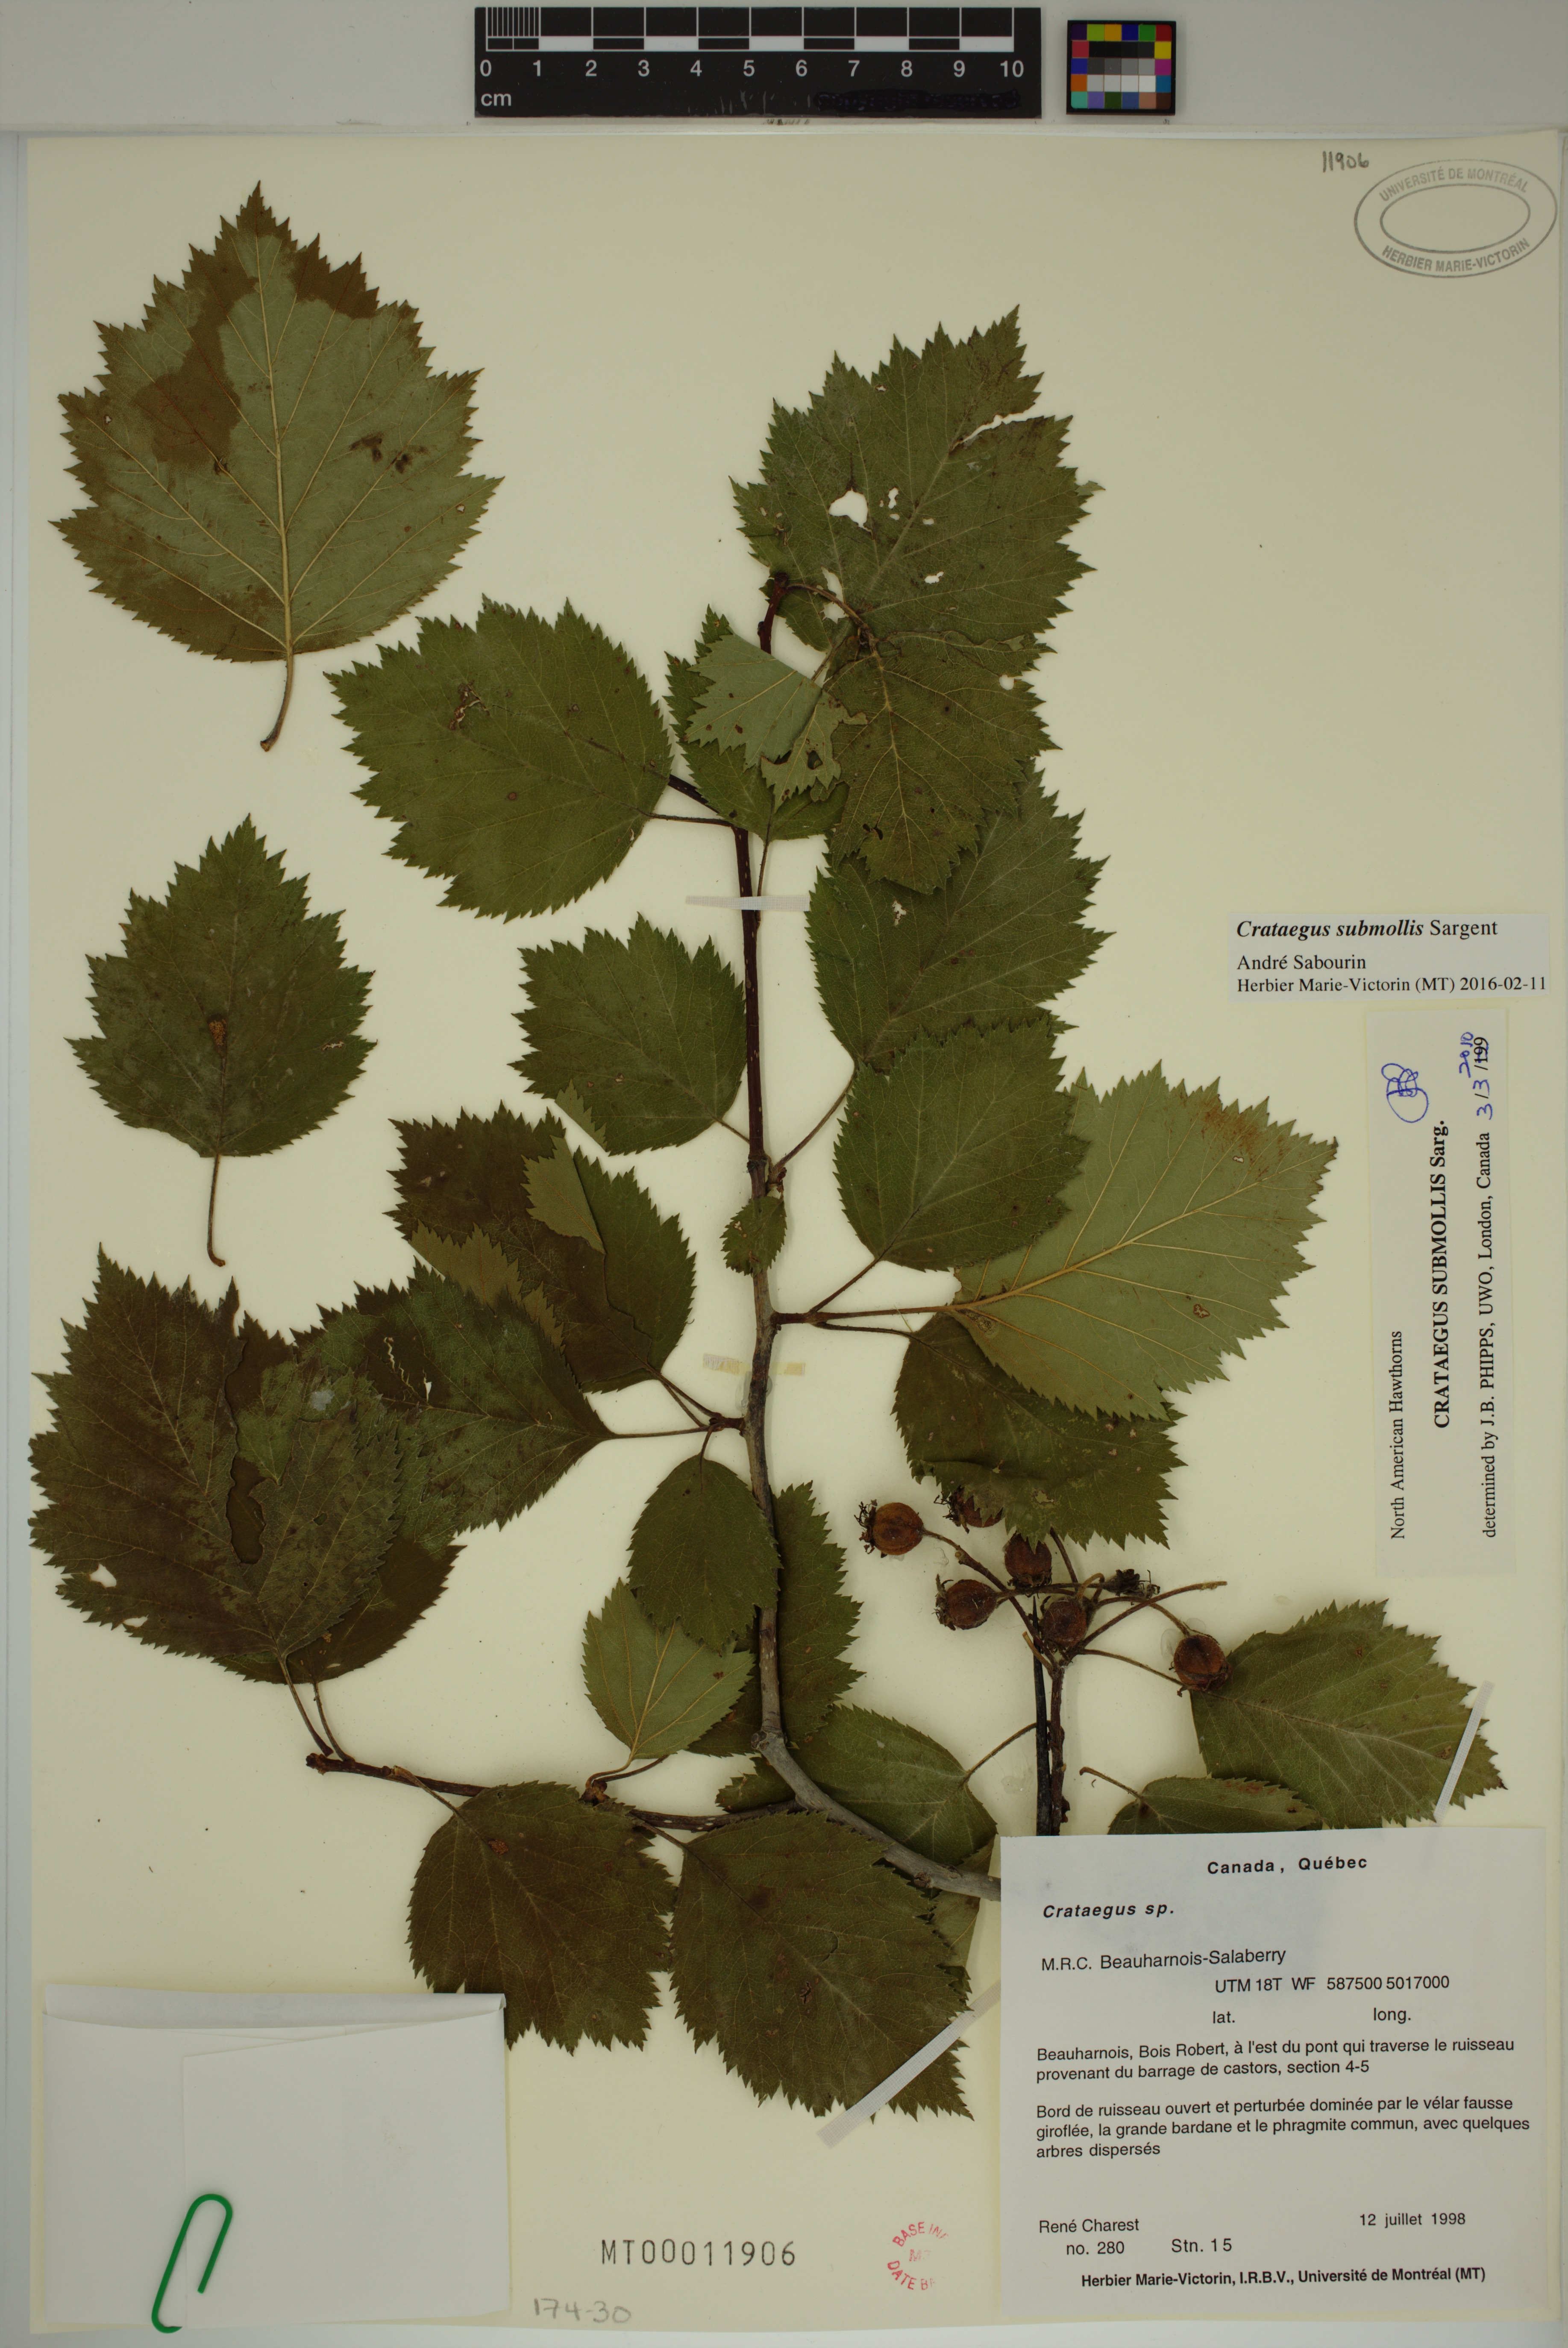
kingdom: Plantae
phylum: Tracheophyta
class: Magnoliopsida
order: Rosales
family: Rosaceae
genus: Crataegus
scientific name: Crataegus submollis
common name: Hairy cockspurthorn
